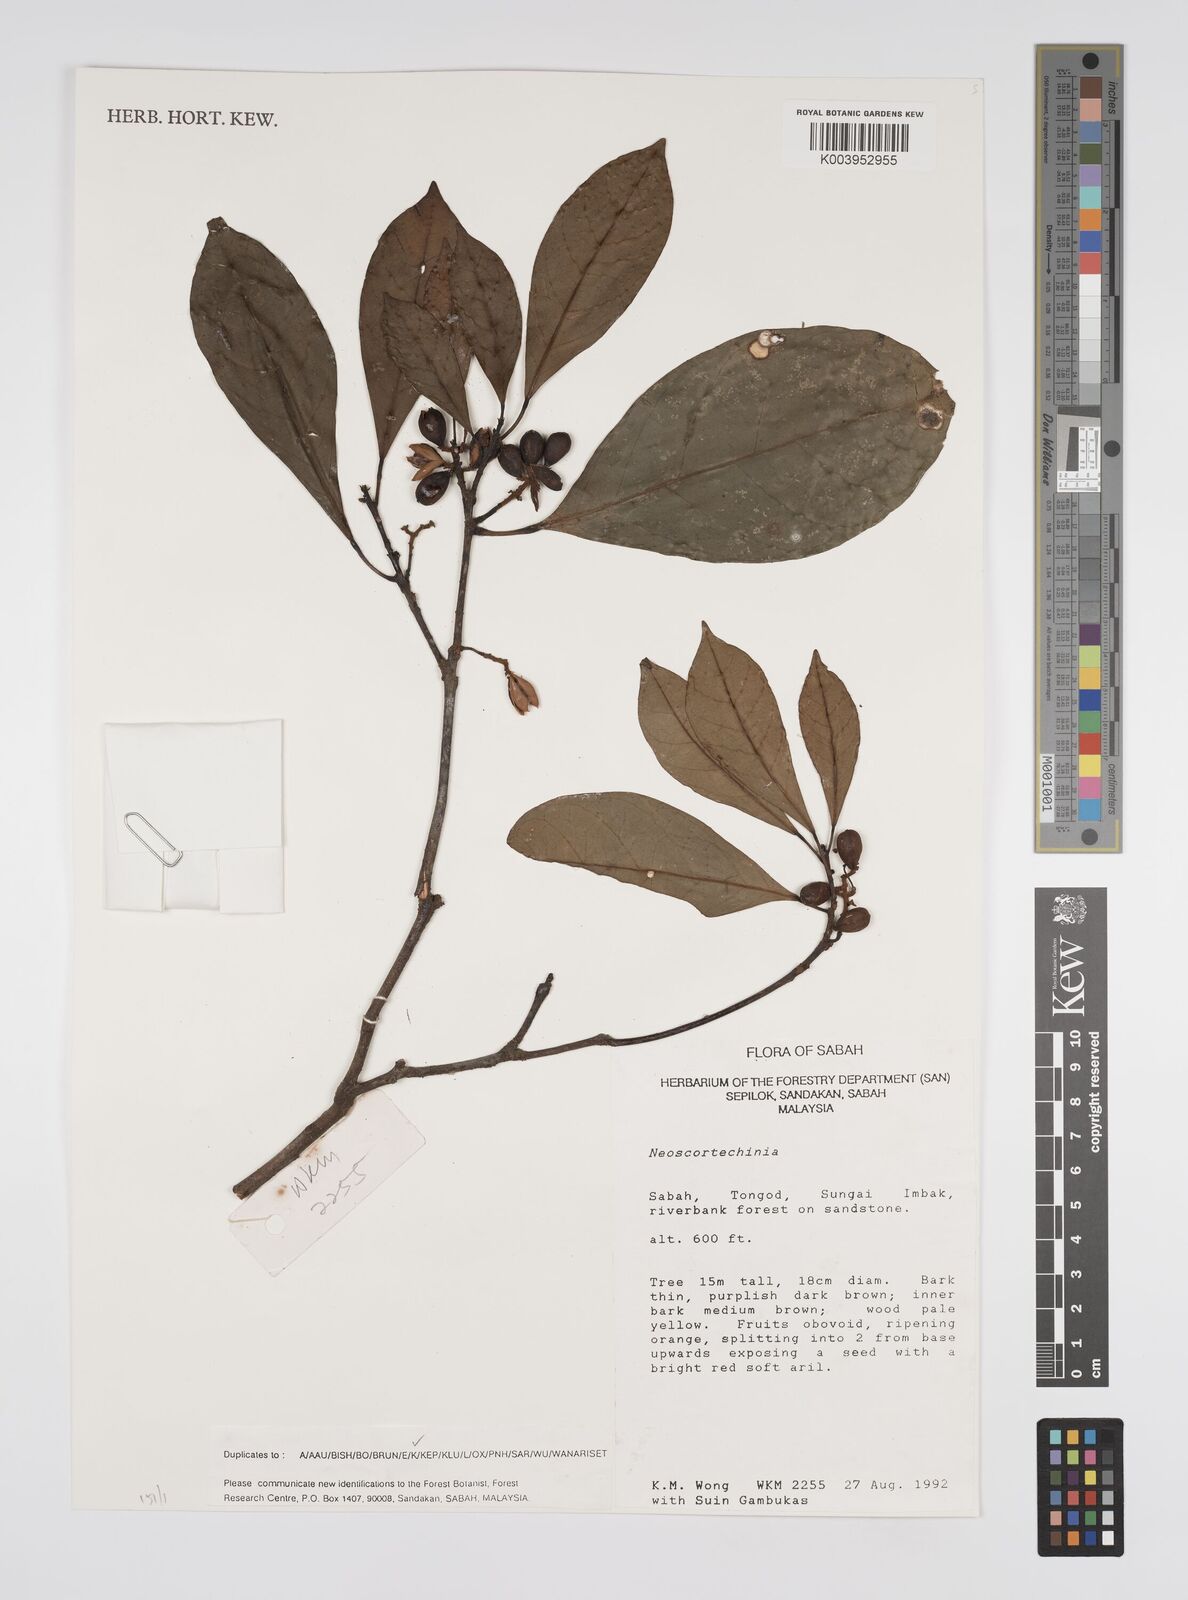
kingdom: Plantae
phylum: Tracheophyta
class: Magnoliopsida
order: Malpighiales
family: Euphorbiaceae
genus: Neoscortechinia
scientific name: Neoscortechinia
